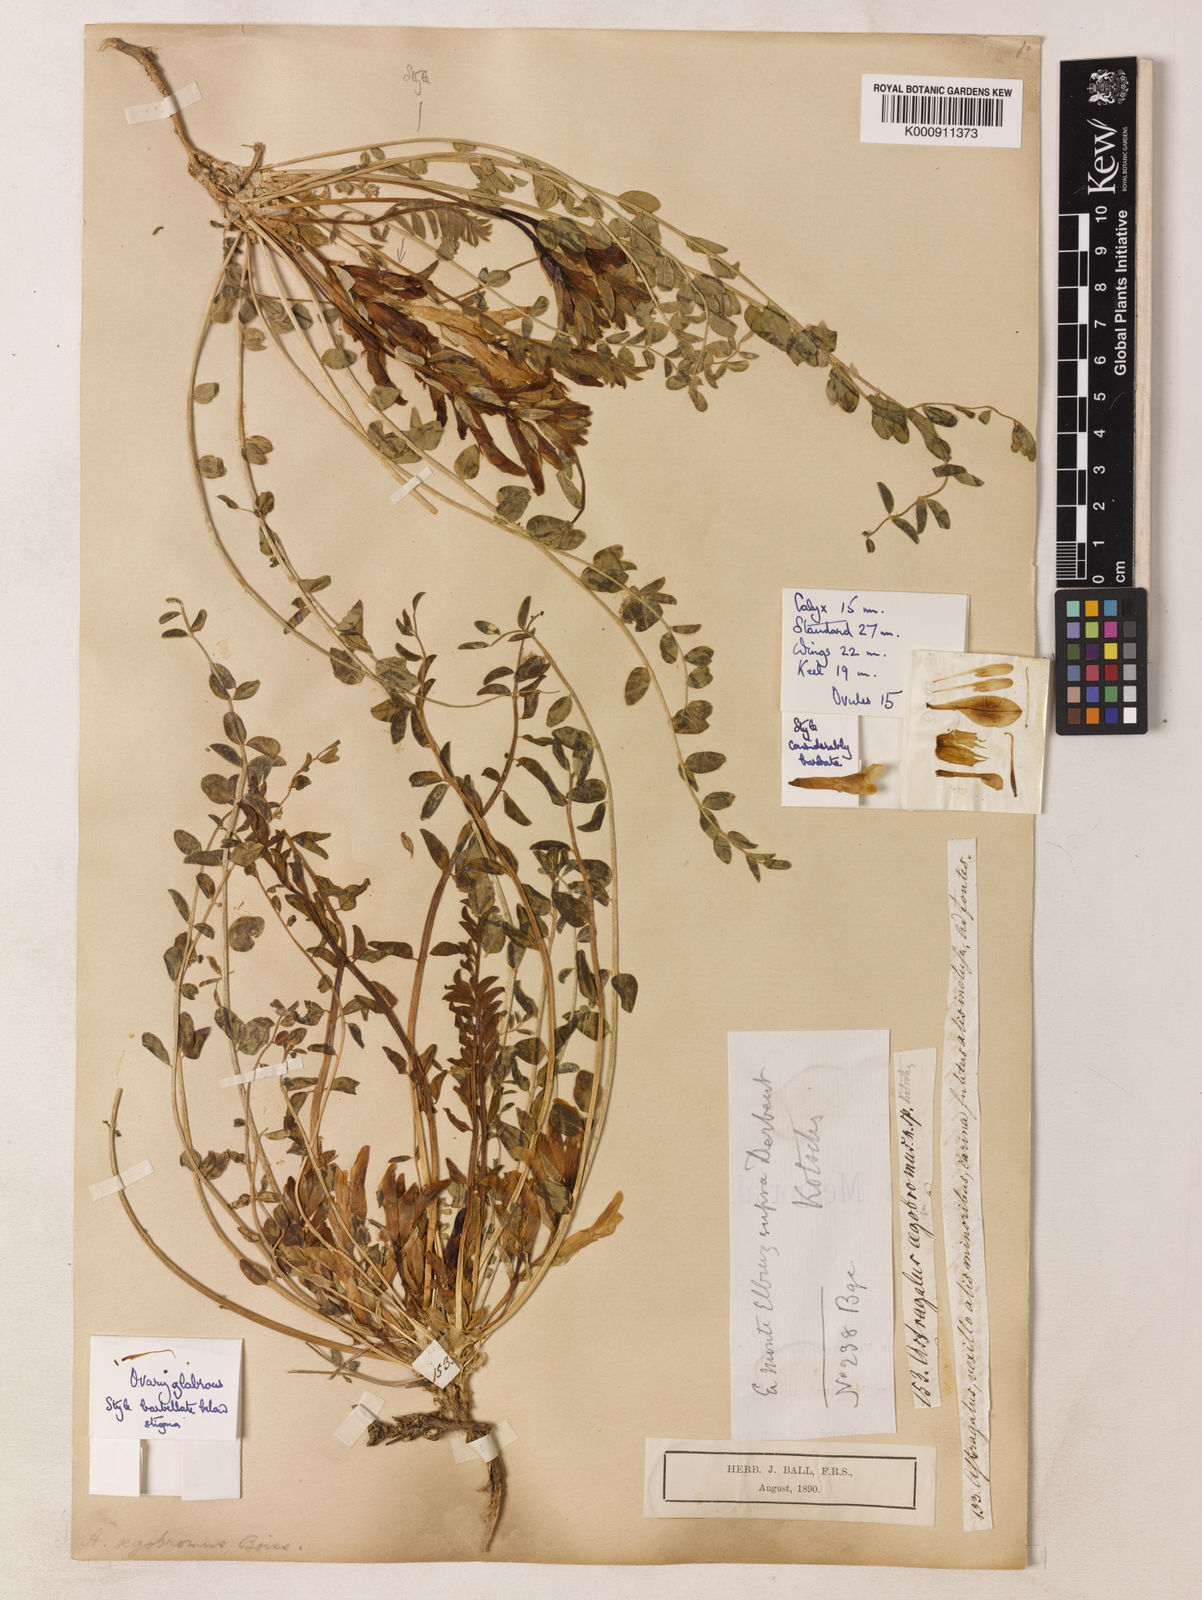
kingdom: Plantae
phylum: Tracheophyta
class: Magnoliopsida
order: Fabales
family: Fabaceae
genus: Astragalus
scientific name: Astragalus aegobromus
